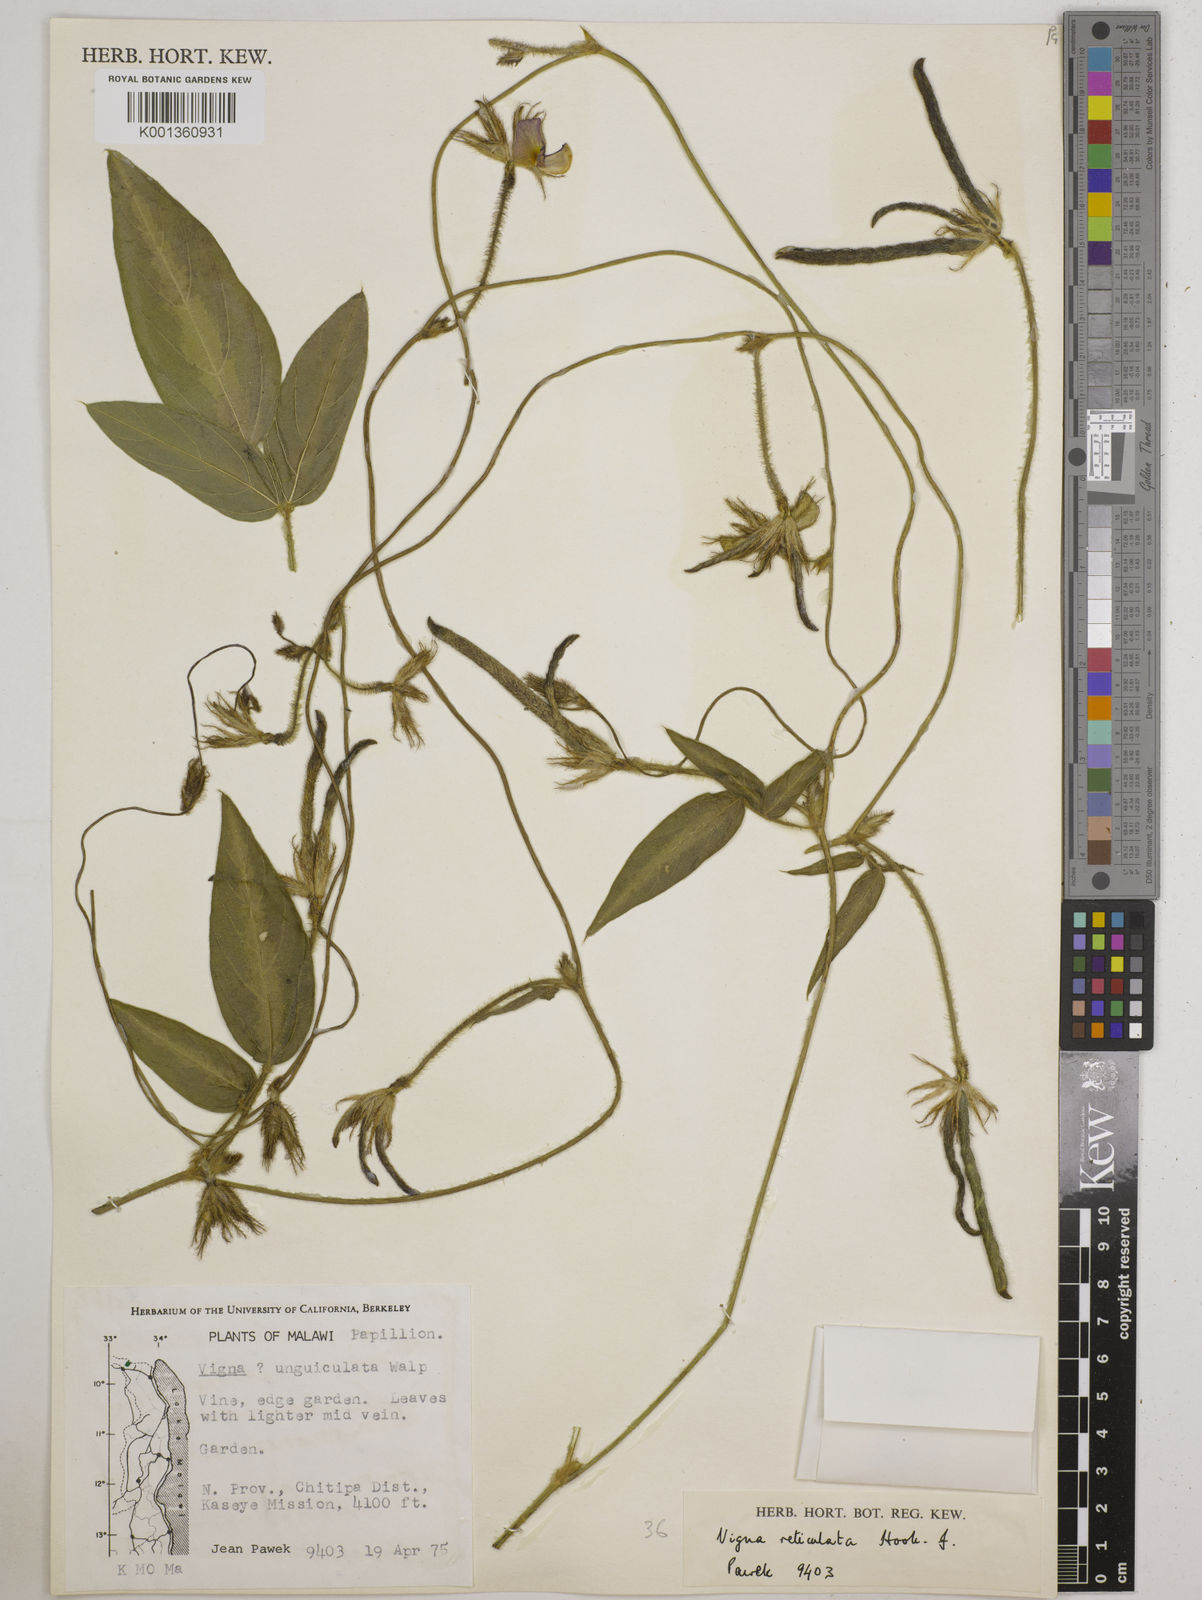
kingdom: Plantae
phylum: Tracheophyta
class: Magnoliopsida
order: Fabales
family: Fabaceae
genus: Vigna
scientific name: Vigna reticulata
